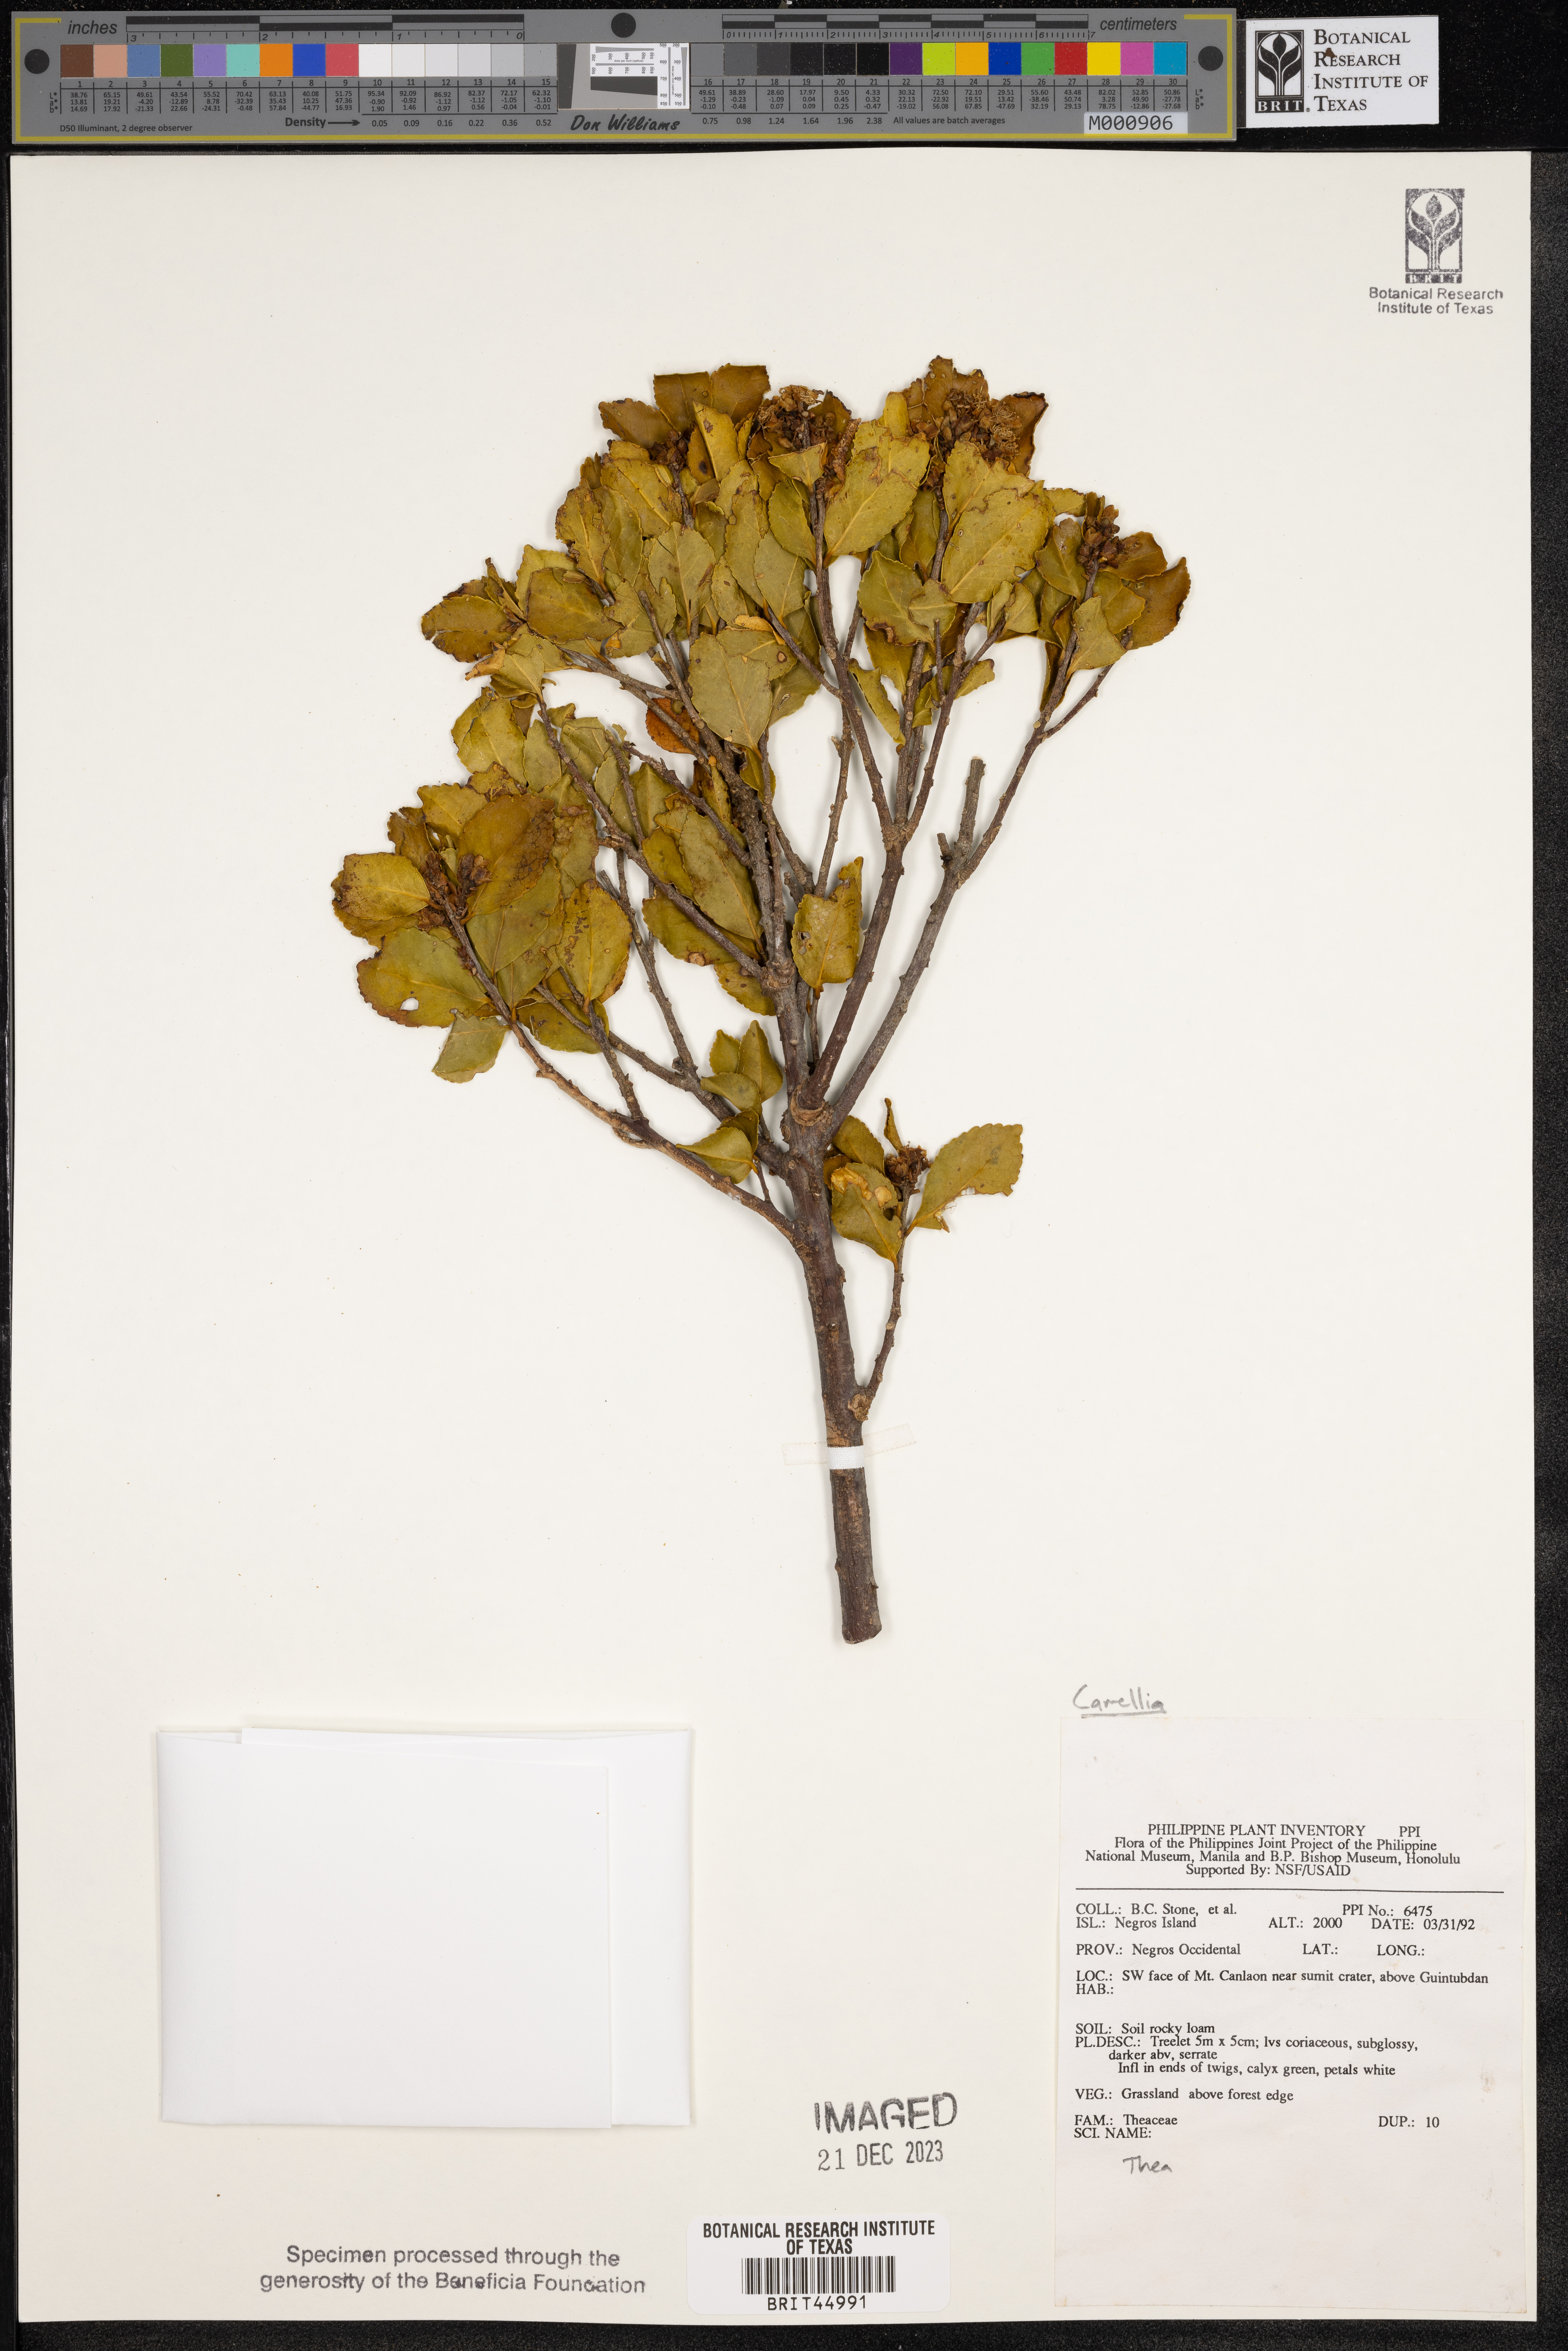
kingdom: Plantae
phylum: Tracheophyta
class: Magnoliopsida
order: Ericales
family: Theaceae
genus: Camellia
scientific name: Camellia
